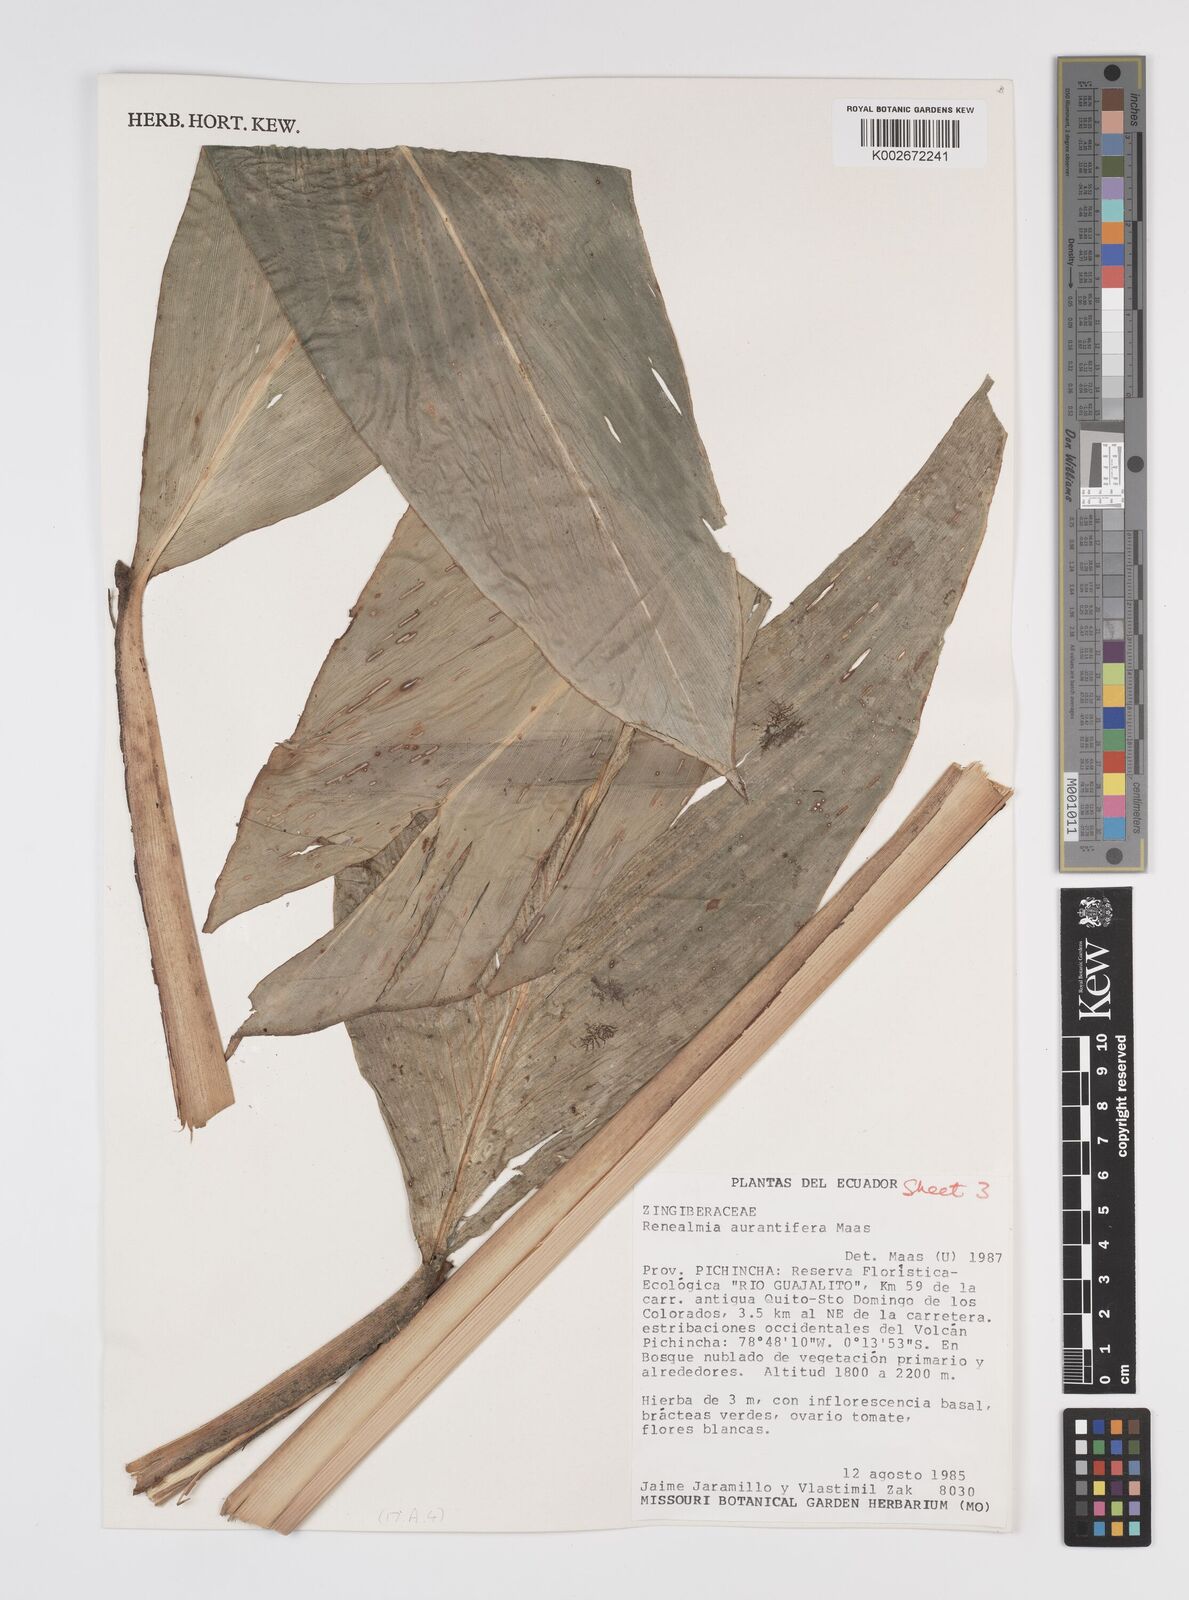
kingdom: Plantae
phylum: Tracheophyta
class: Liliopsida
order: Zingiberales
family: Zingiberaceae
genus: Renealmia
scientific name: Renealmia aurantiifera
